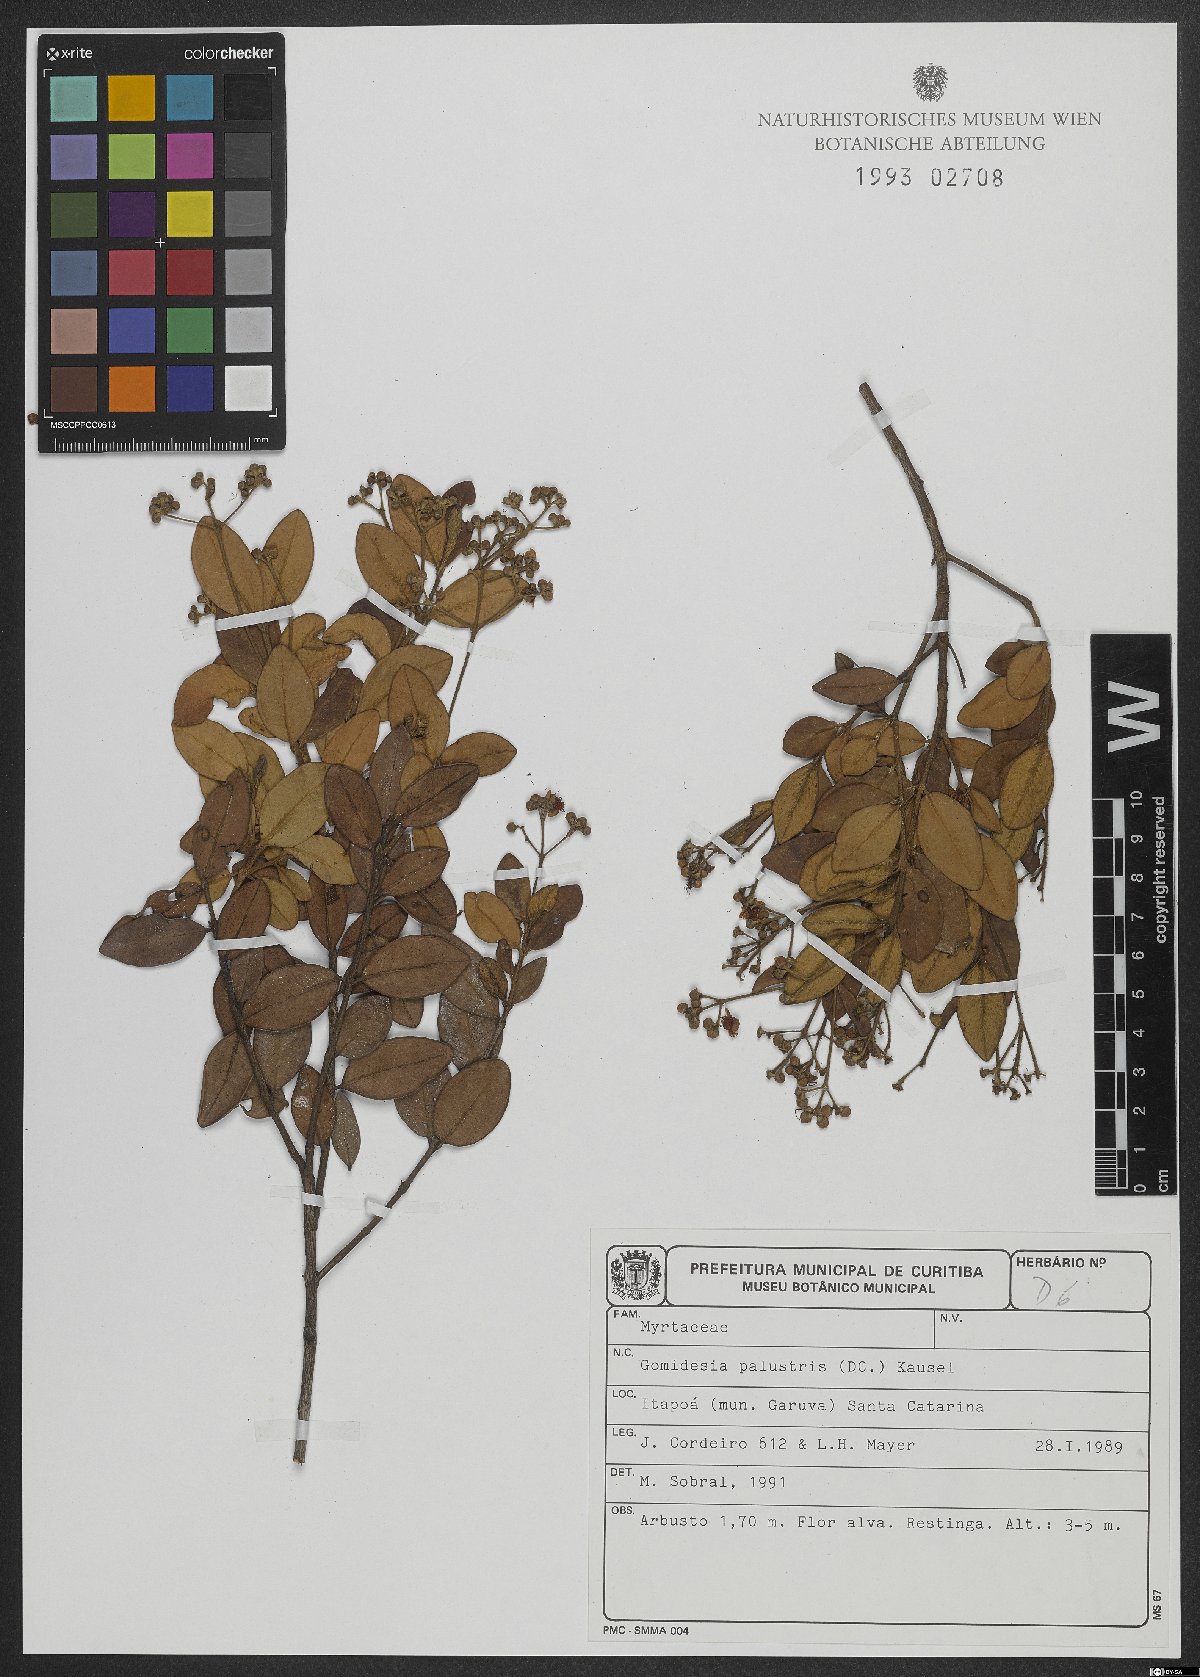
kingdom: Plantae
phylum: Tracheophyta
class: Magnoliopsida
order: Myrtales
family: Myrtaceae
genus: Myrcia
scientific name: Myrcia palustris
